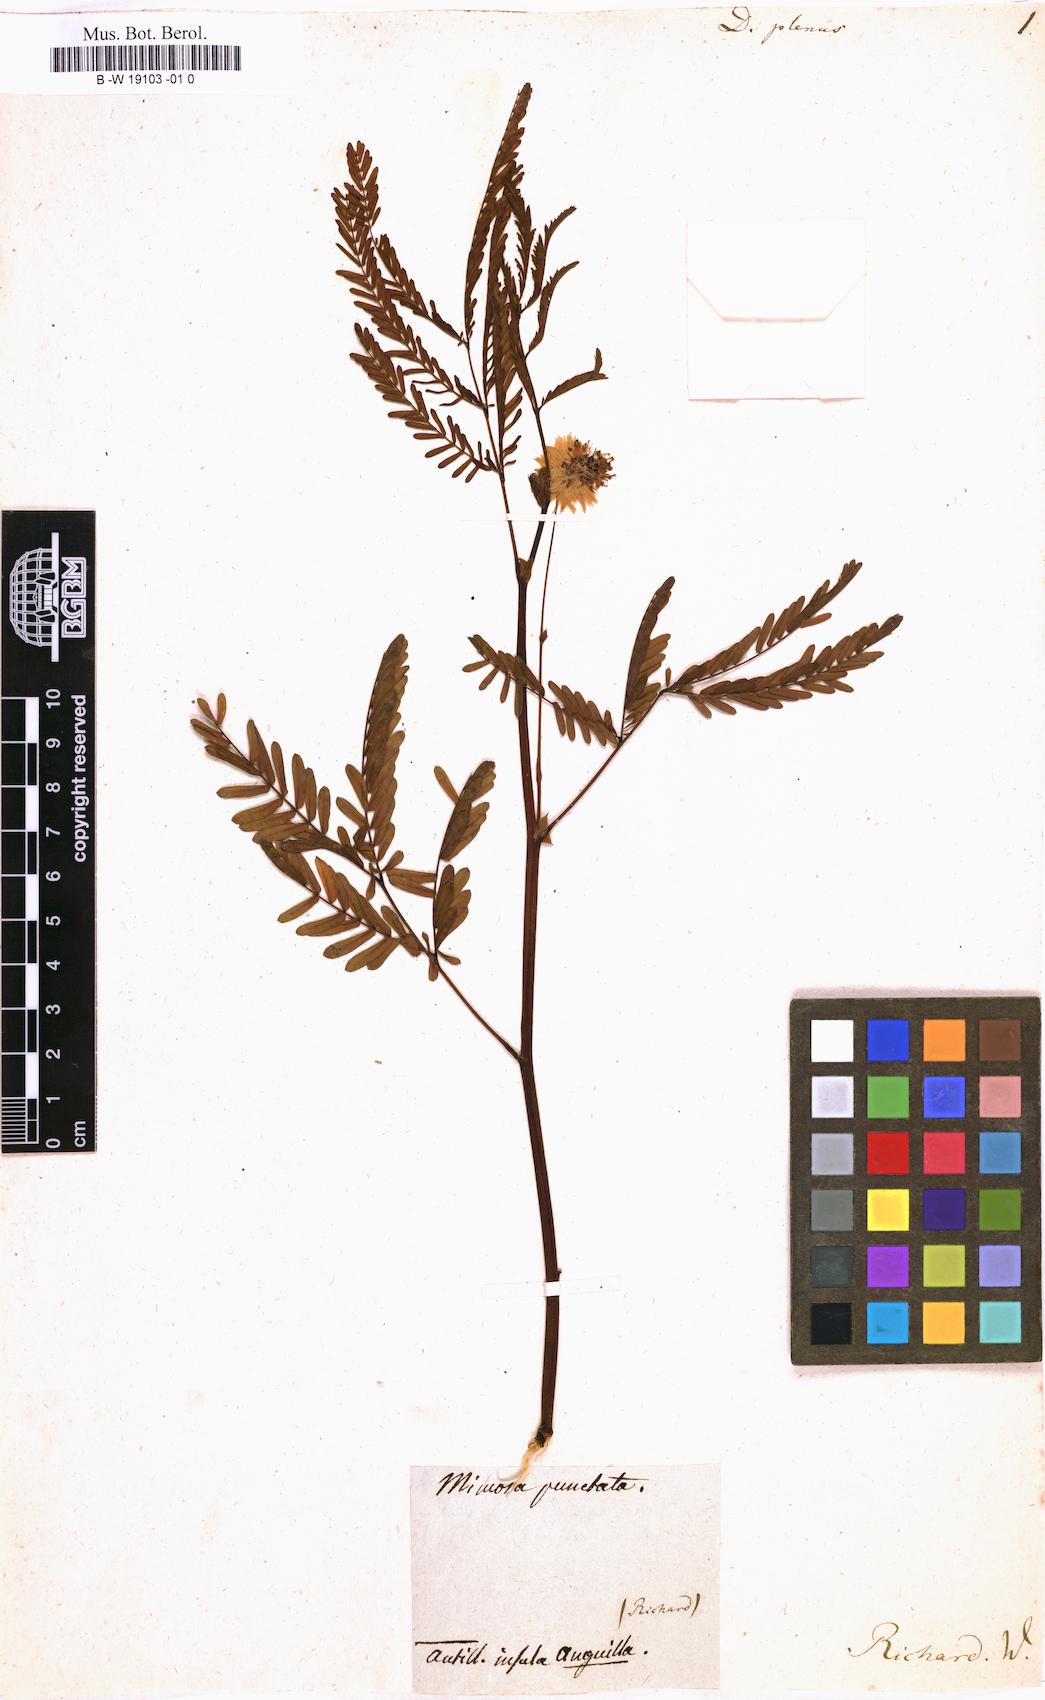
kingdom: Plantae
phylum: Tracheophyta
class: Magnoliopsida
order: Fabales
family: Fabaceae
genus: Neptunia
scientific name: Neptunia plena
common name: Dead and awake
